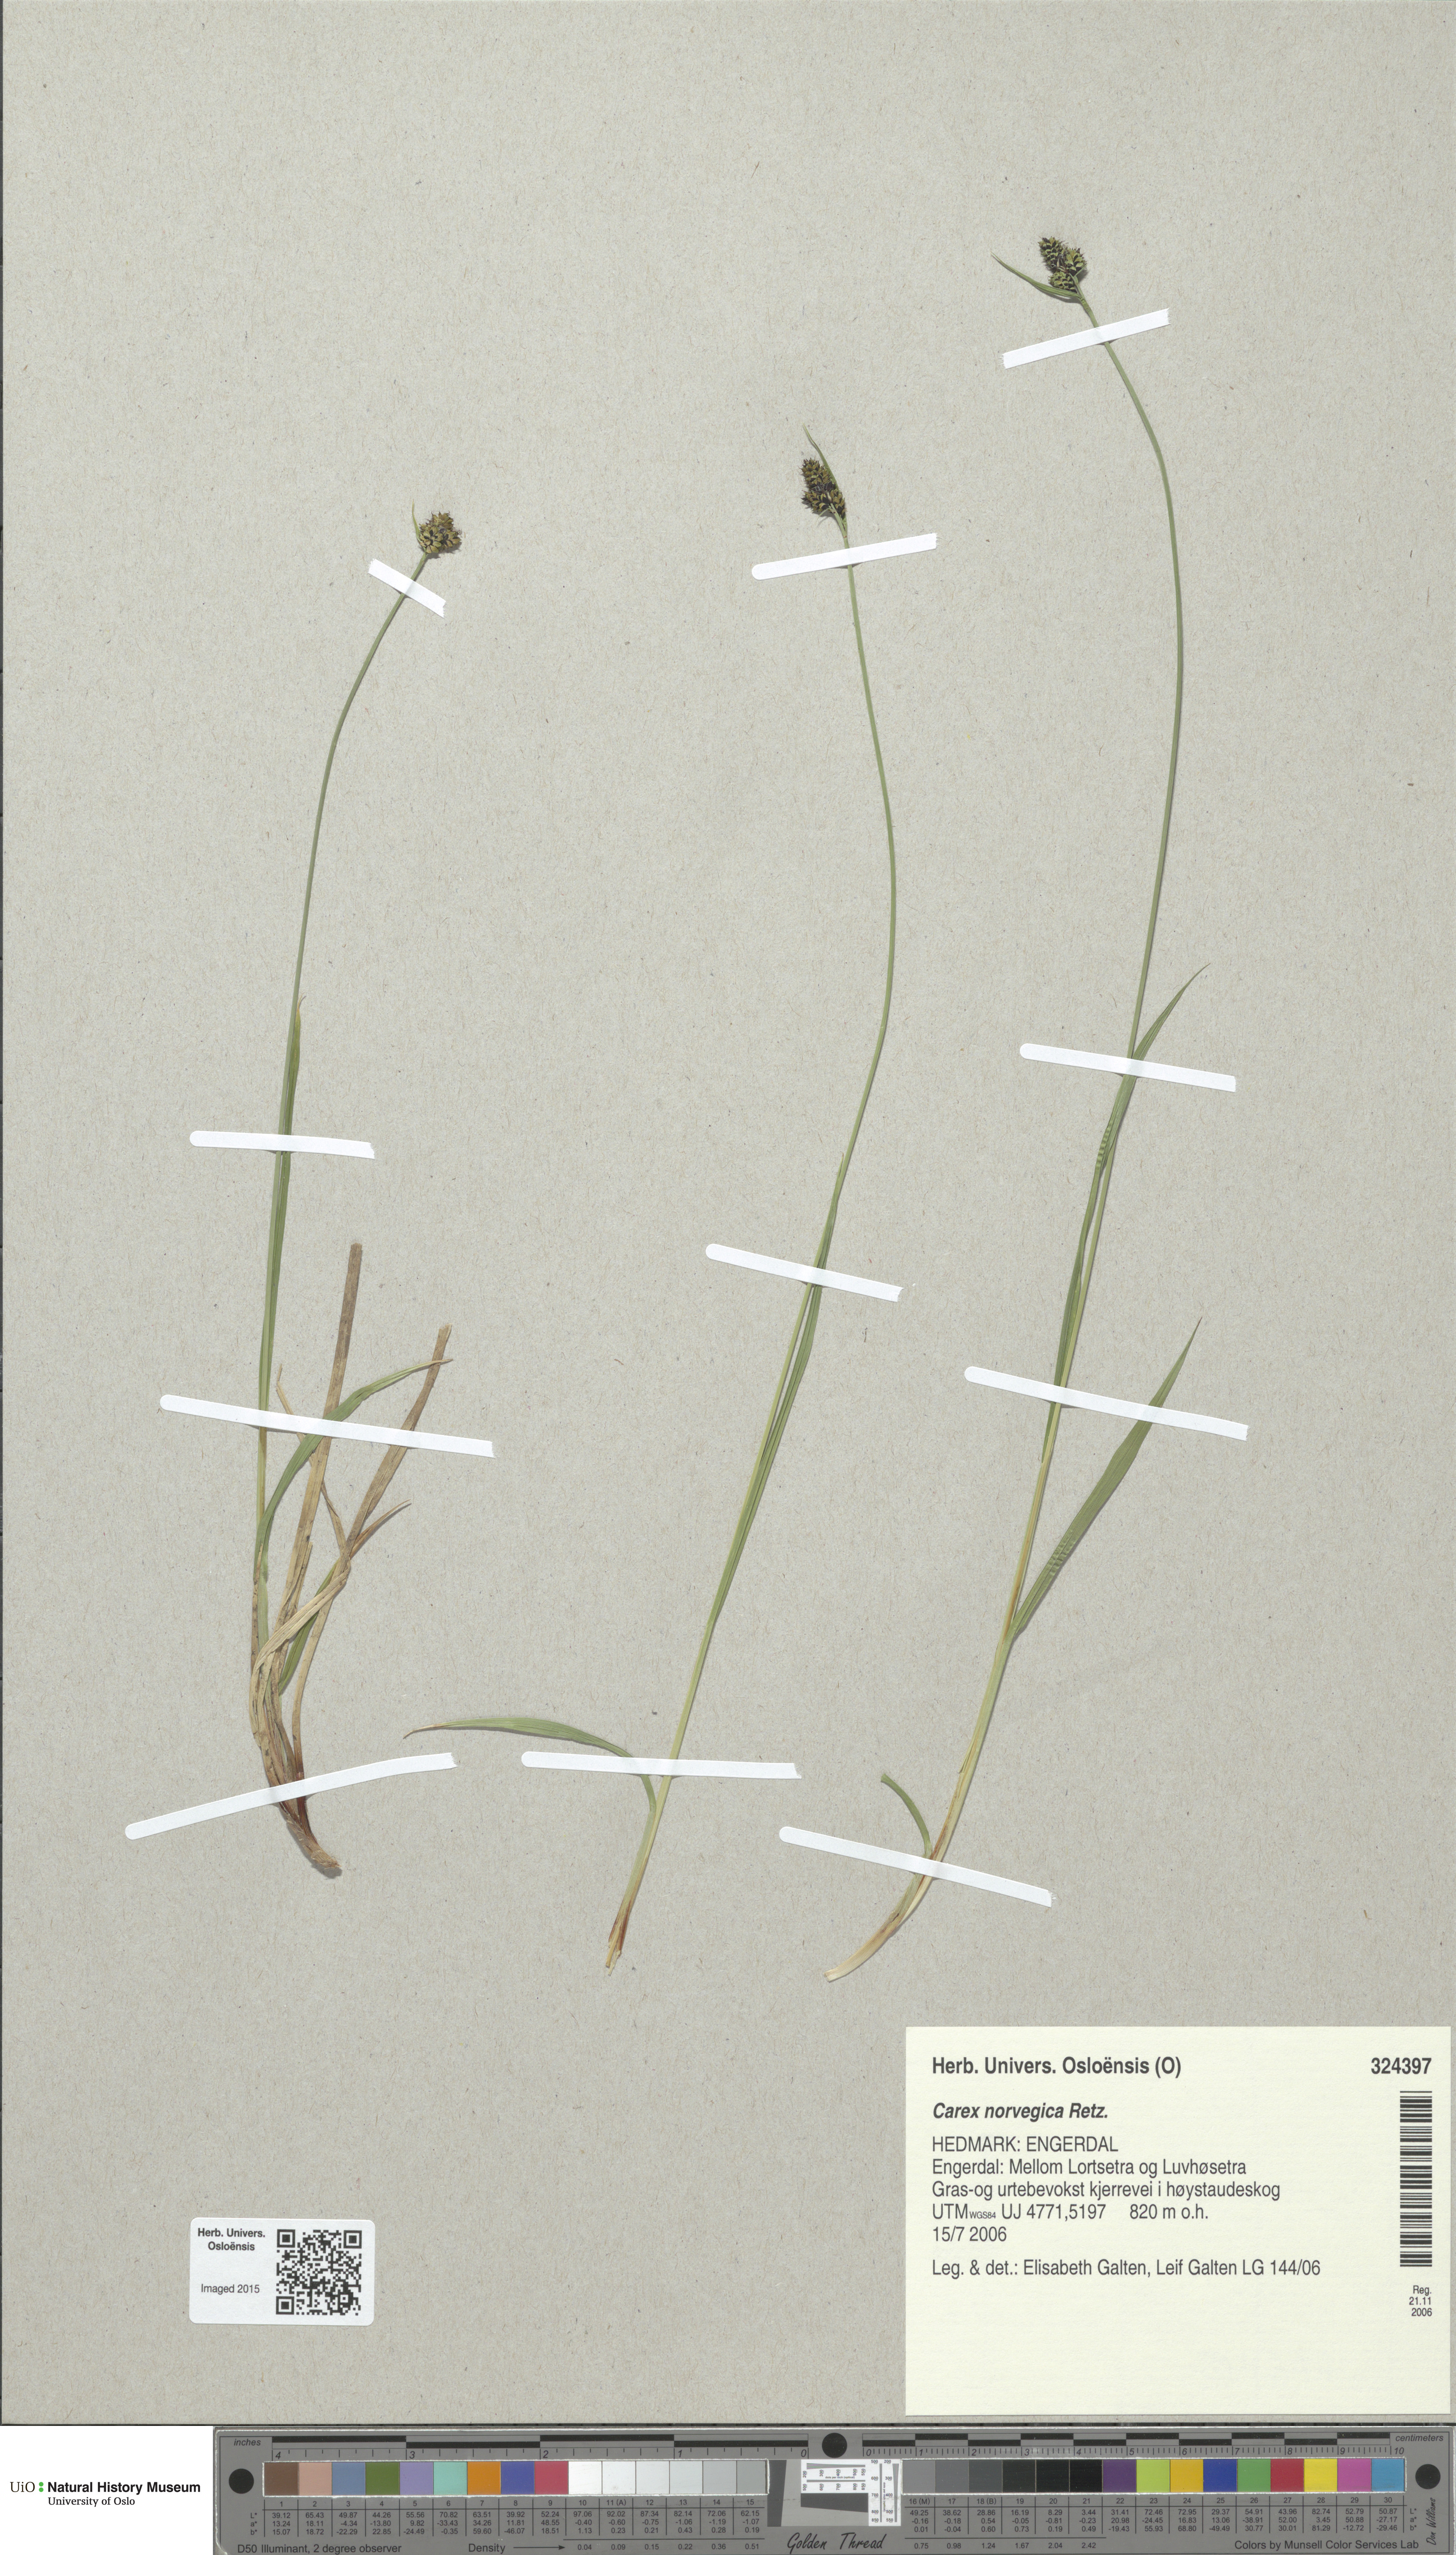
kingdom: Plantae
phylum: Tracheophyta
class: Liliopsida
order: Poales
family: Cyperaceae
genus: Carex
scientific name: Carex norvegica
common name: Close-headed alpine-sedge
